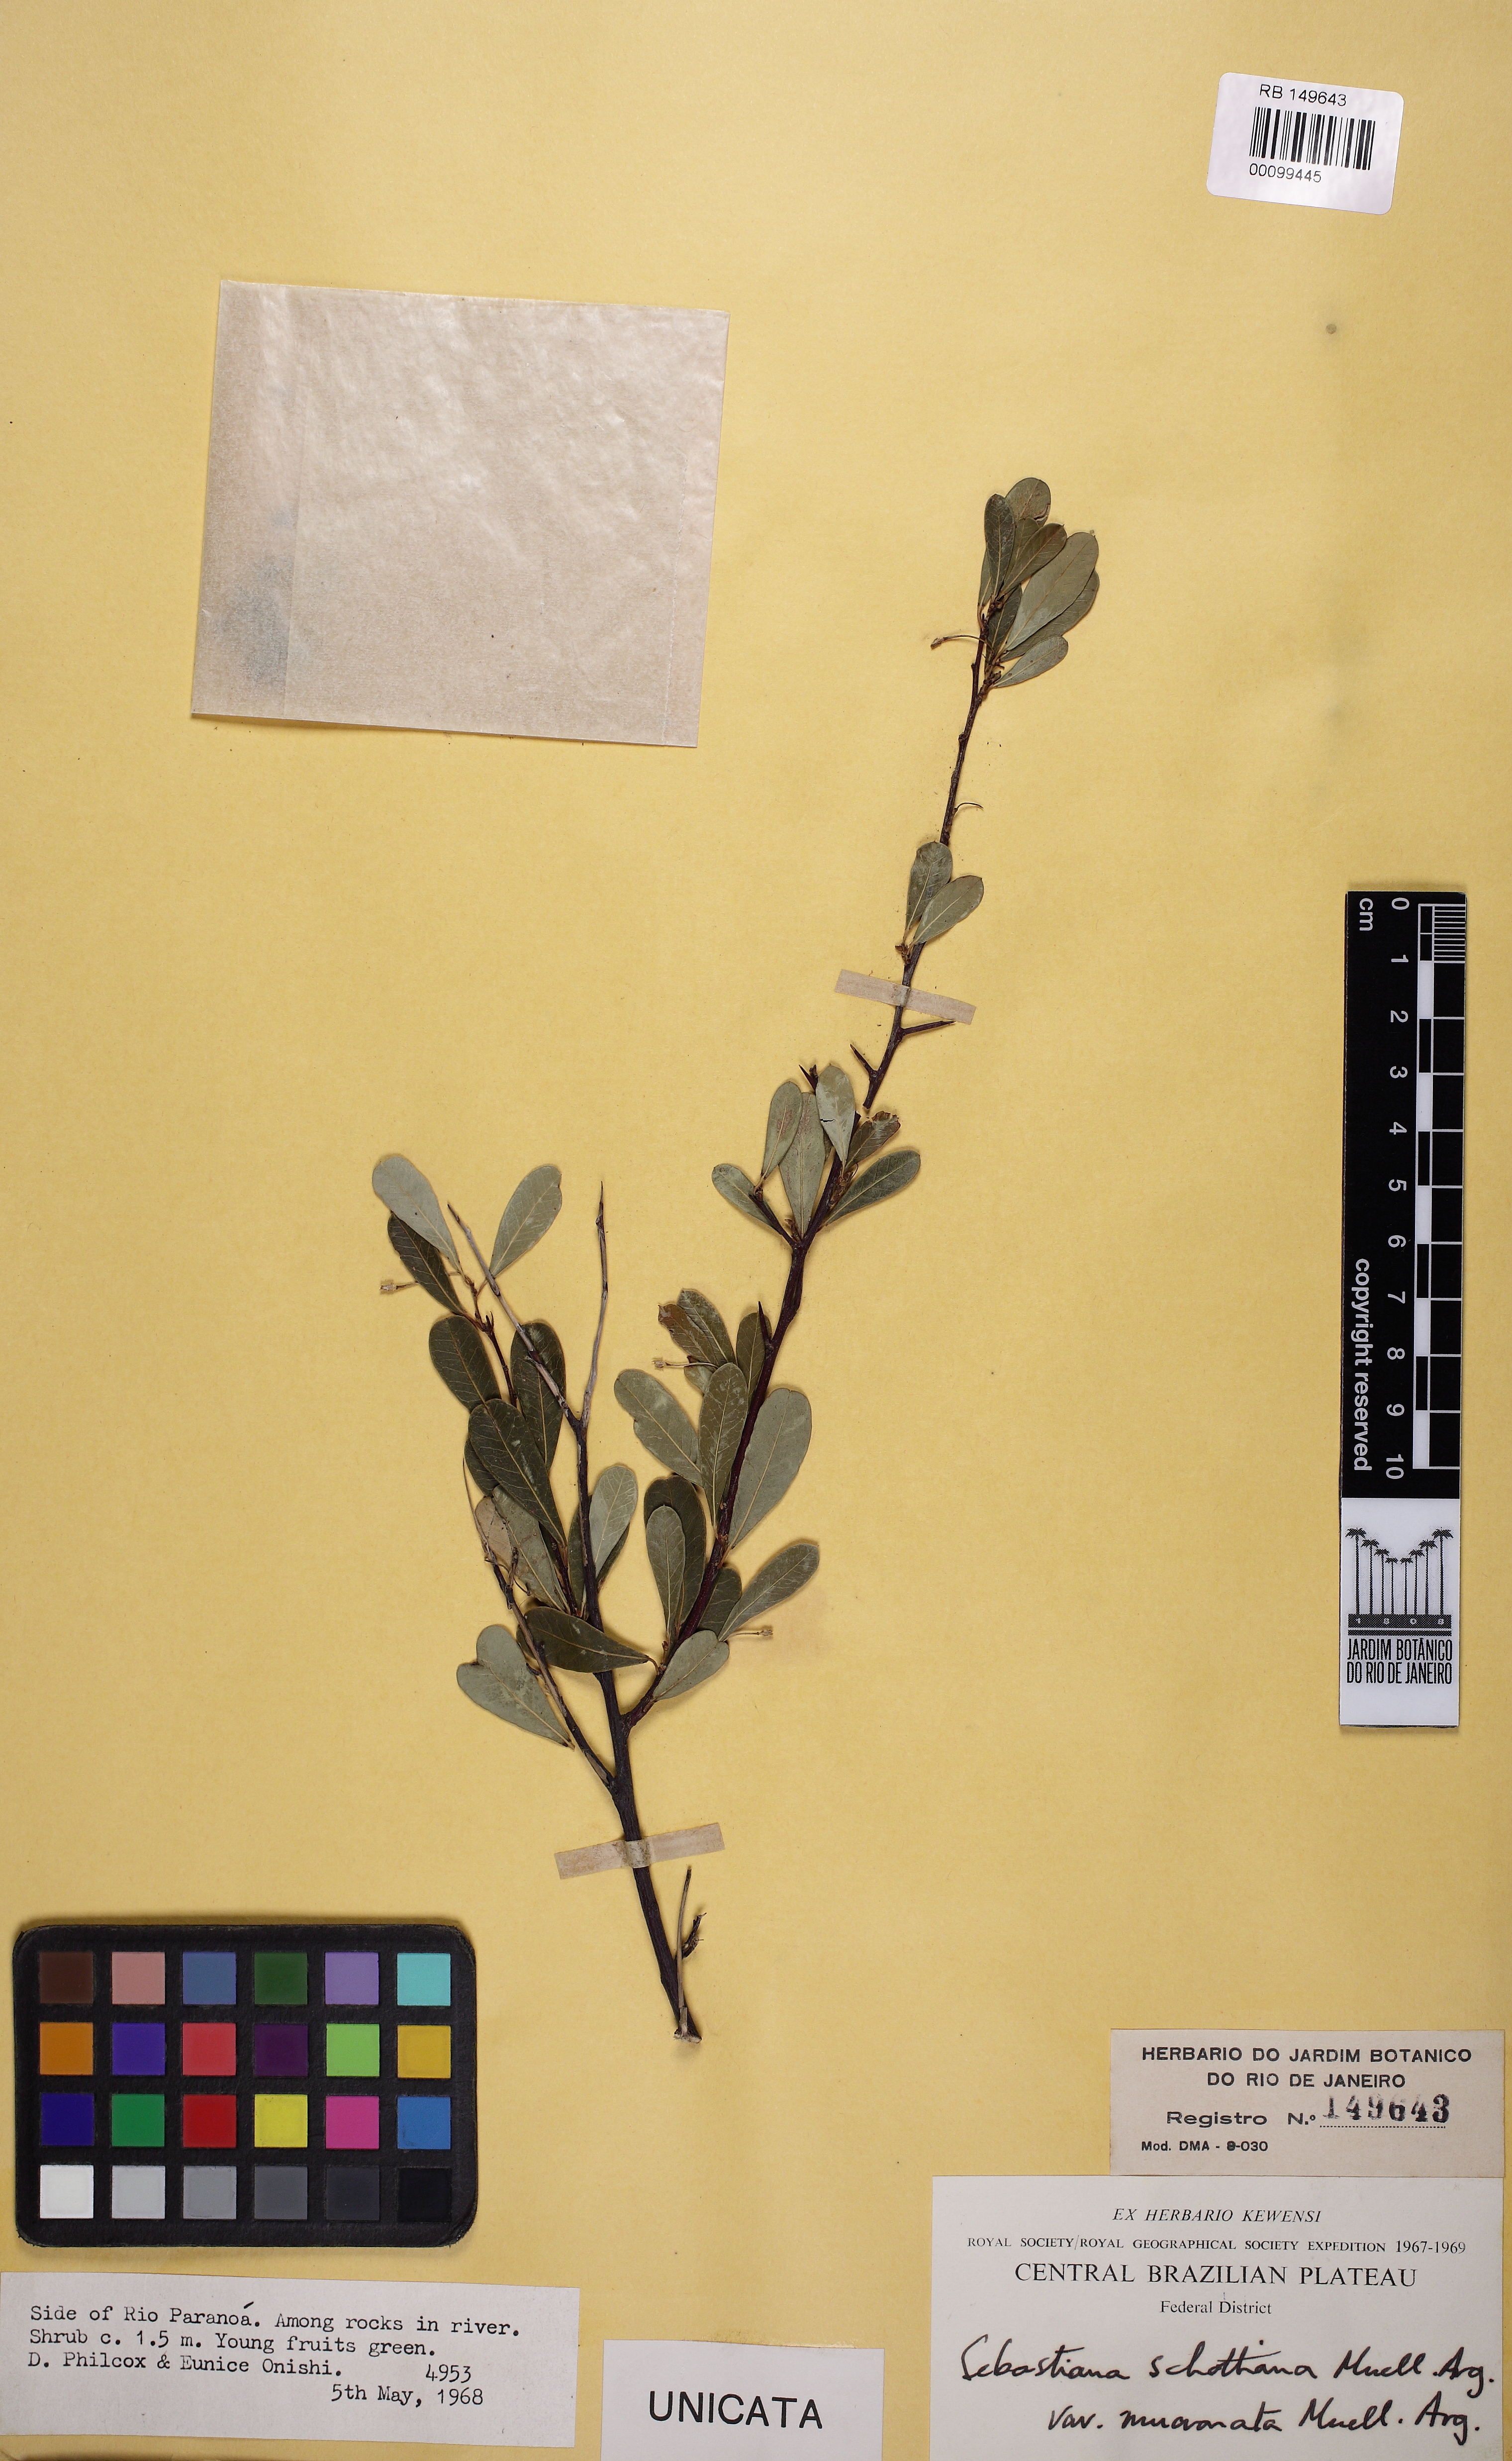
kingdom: Plantae
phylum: Tracheophyta
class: Magnoliopsida
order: Malpighiales
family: Euphorbiaceae
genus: Sebastiania
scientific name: Sebastiania schottiana
